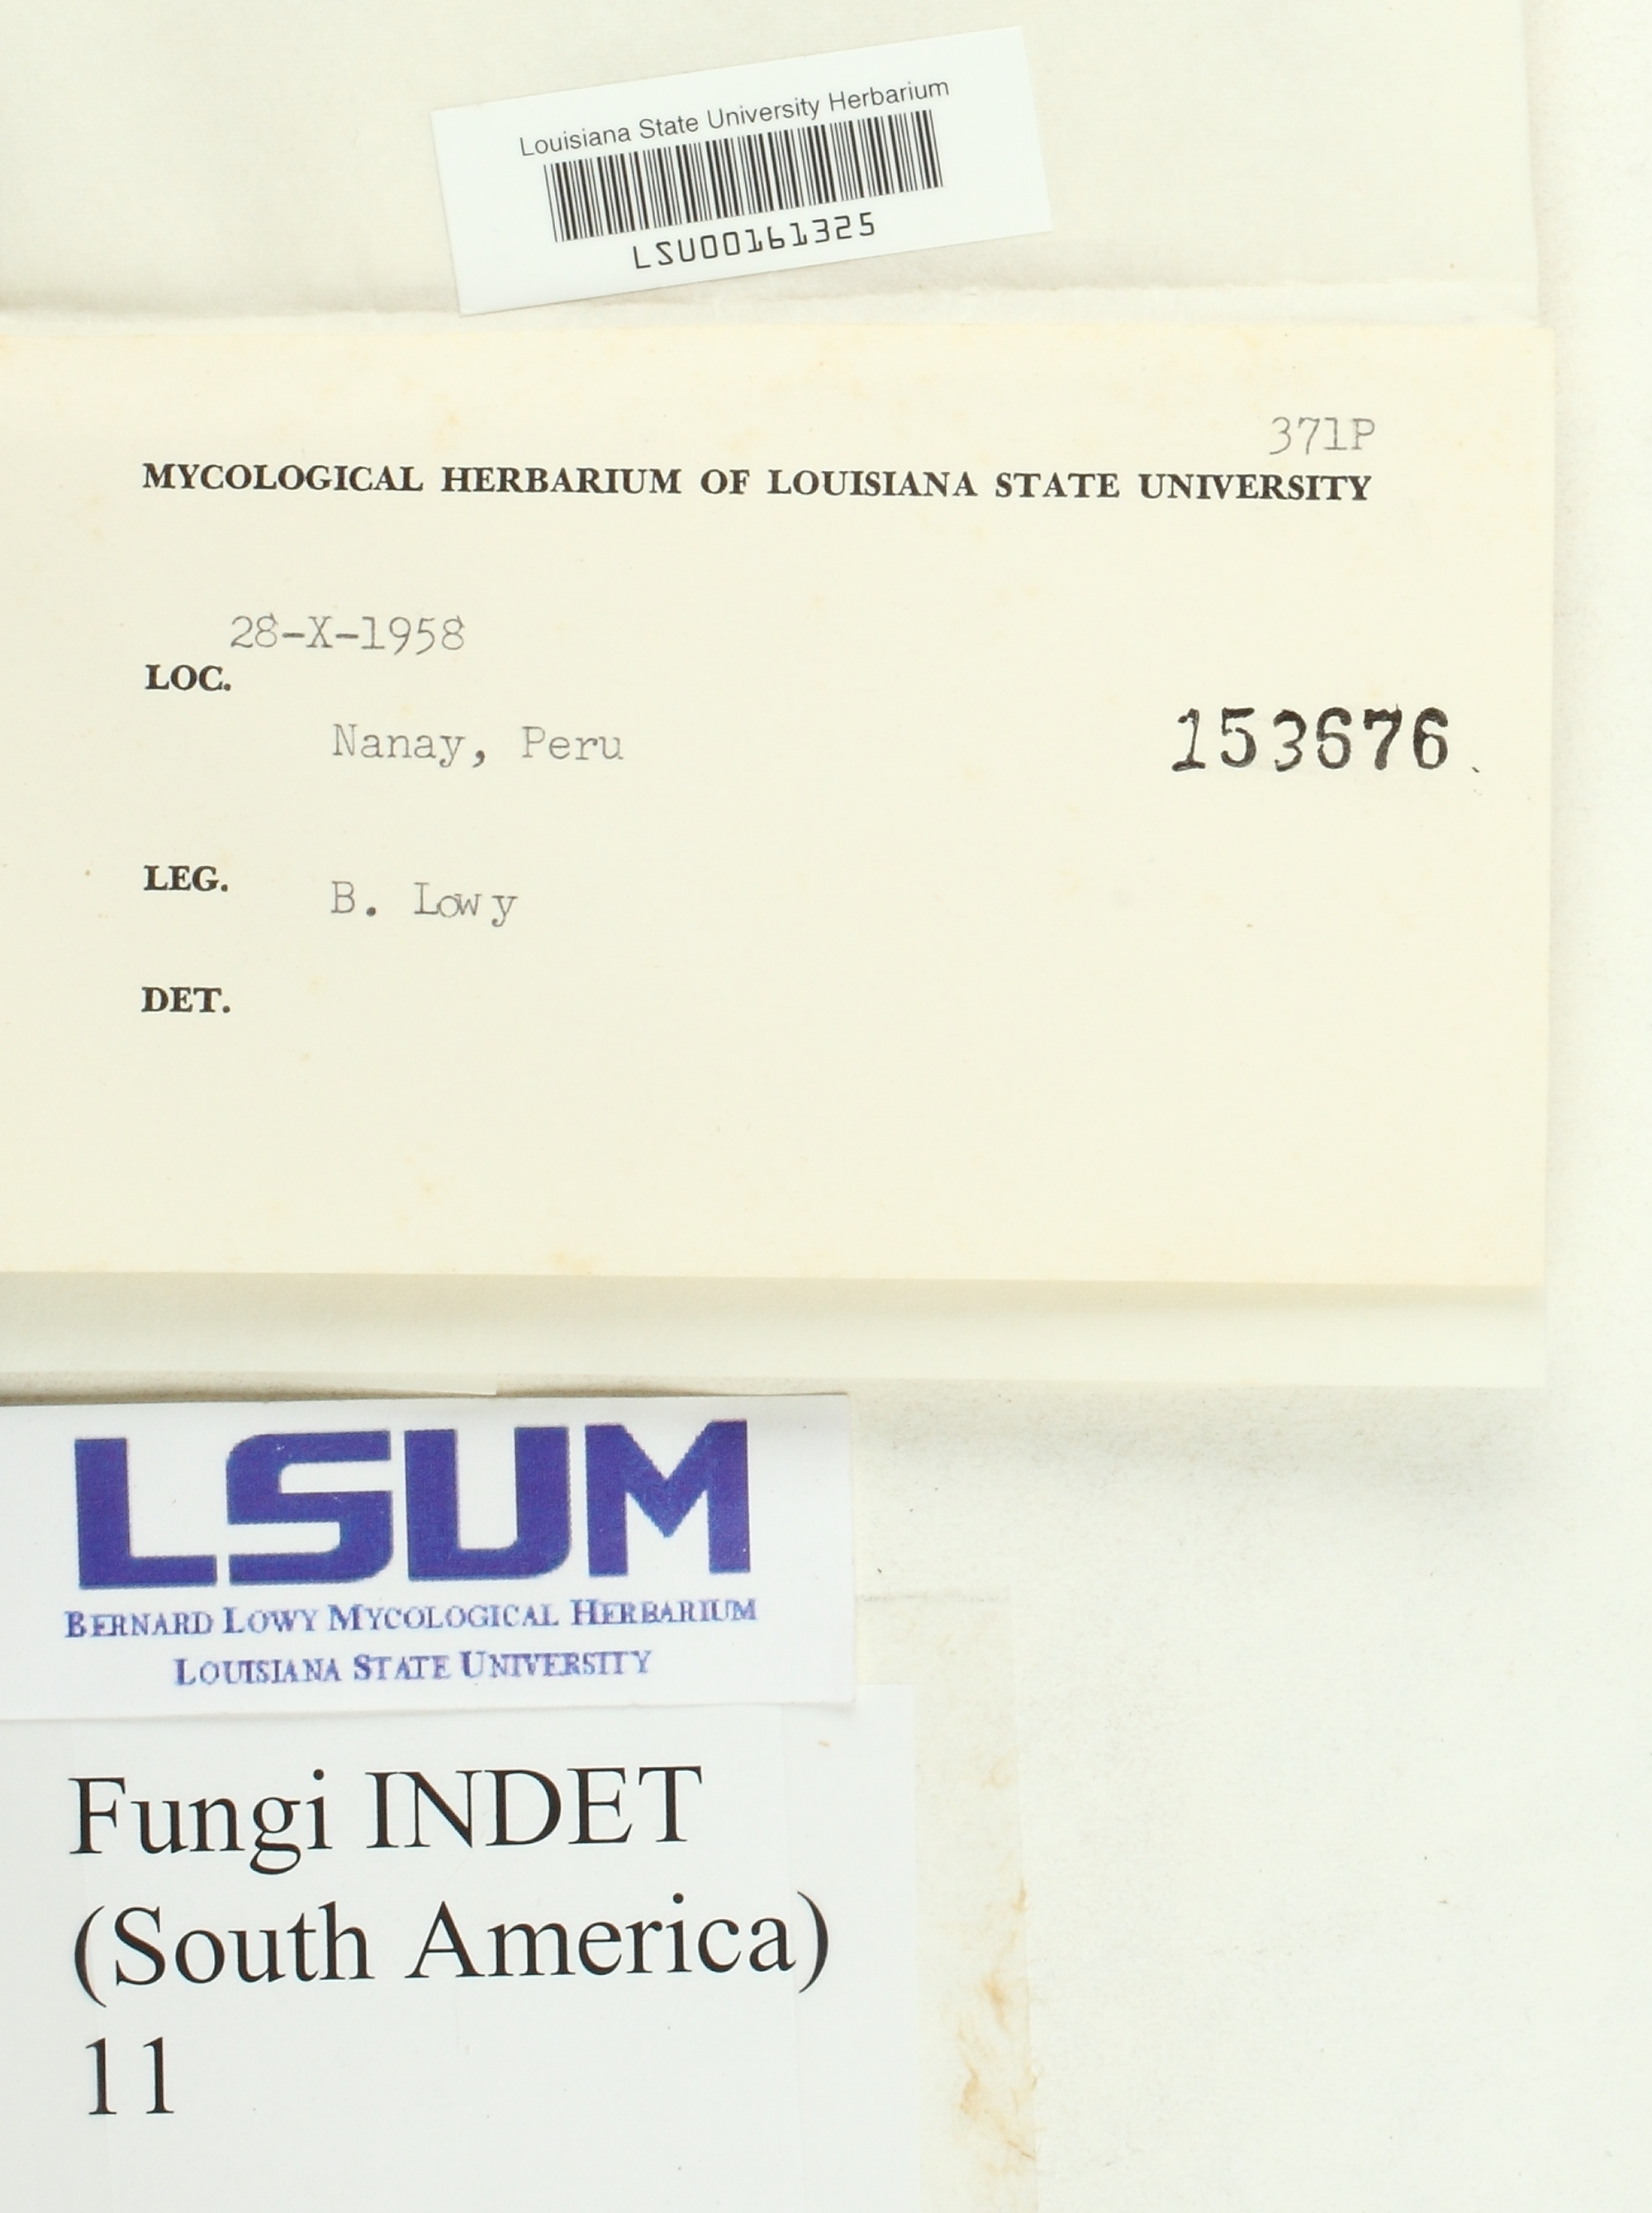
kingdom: Fungi
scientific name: Fungi
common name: Fungi
